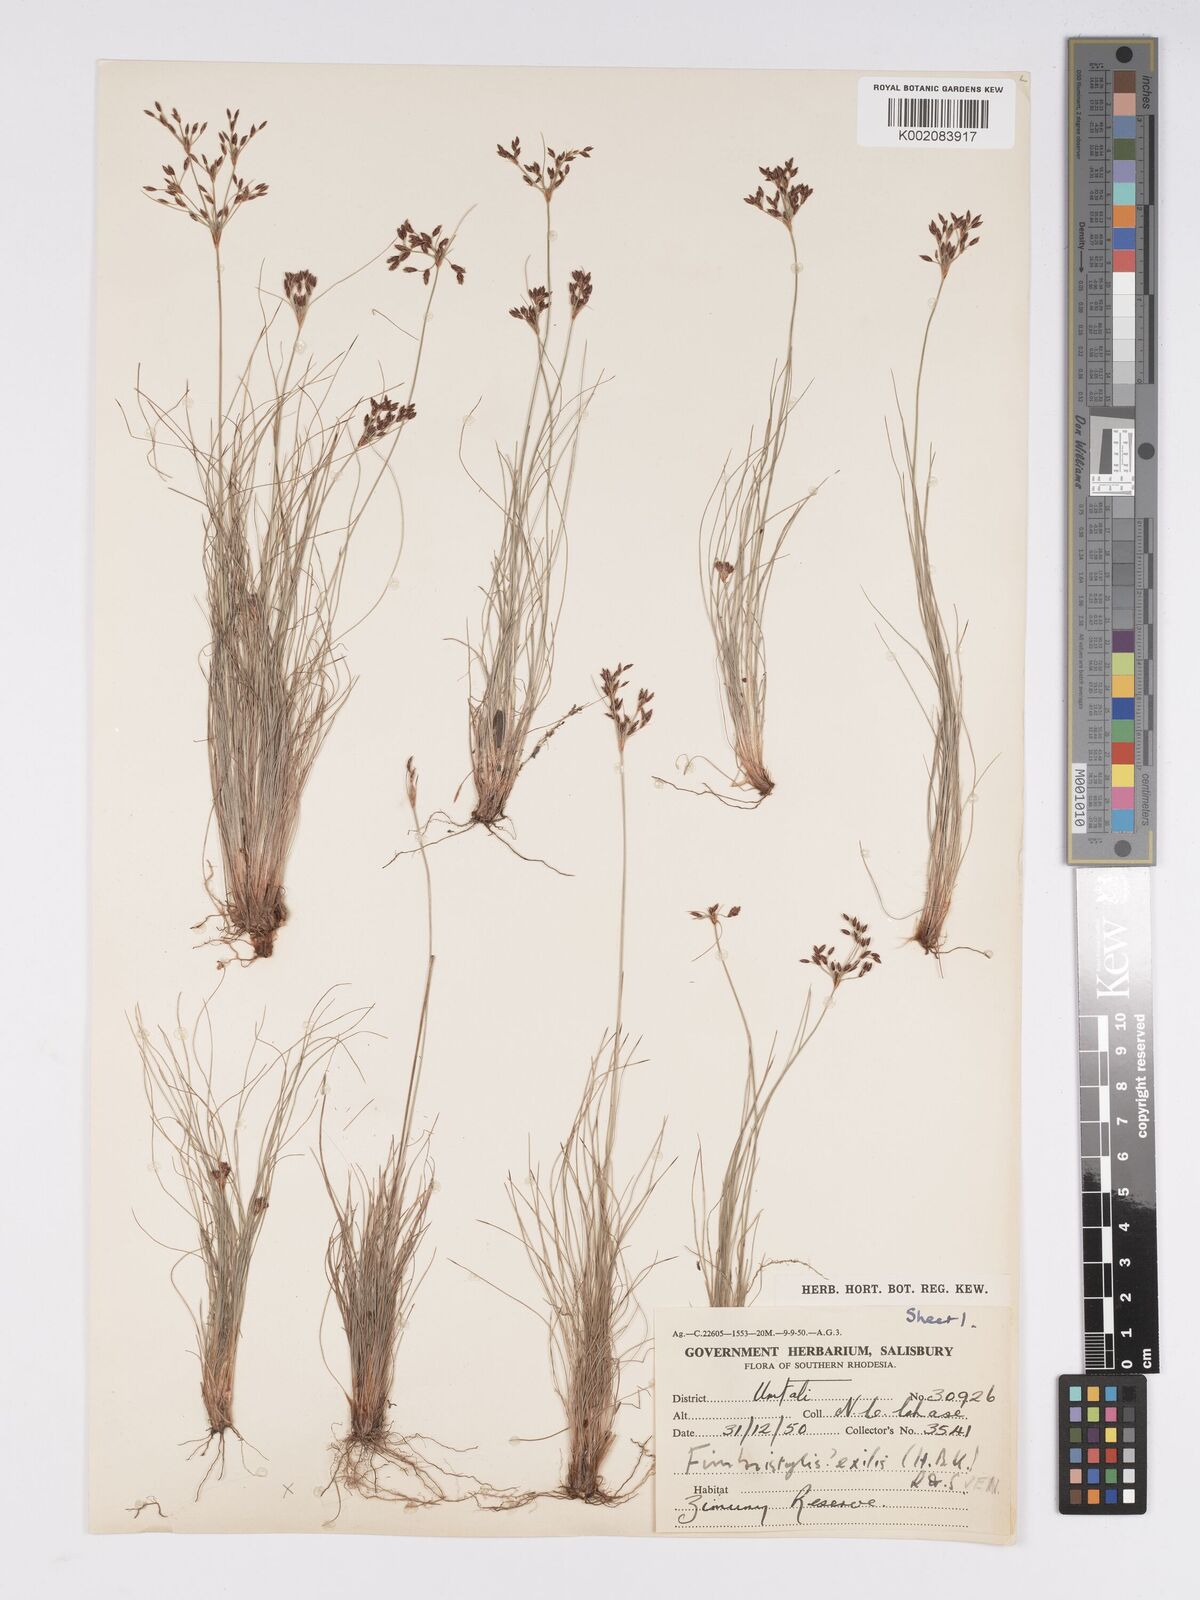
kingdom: Plantae
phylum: Tracheophyta
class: Liliopsida
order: Poales
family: Cyperaceae
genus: Bulbostylis
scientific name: Bulbostylis hispidula
